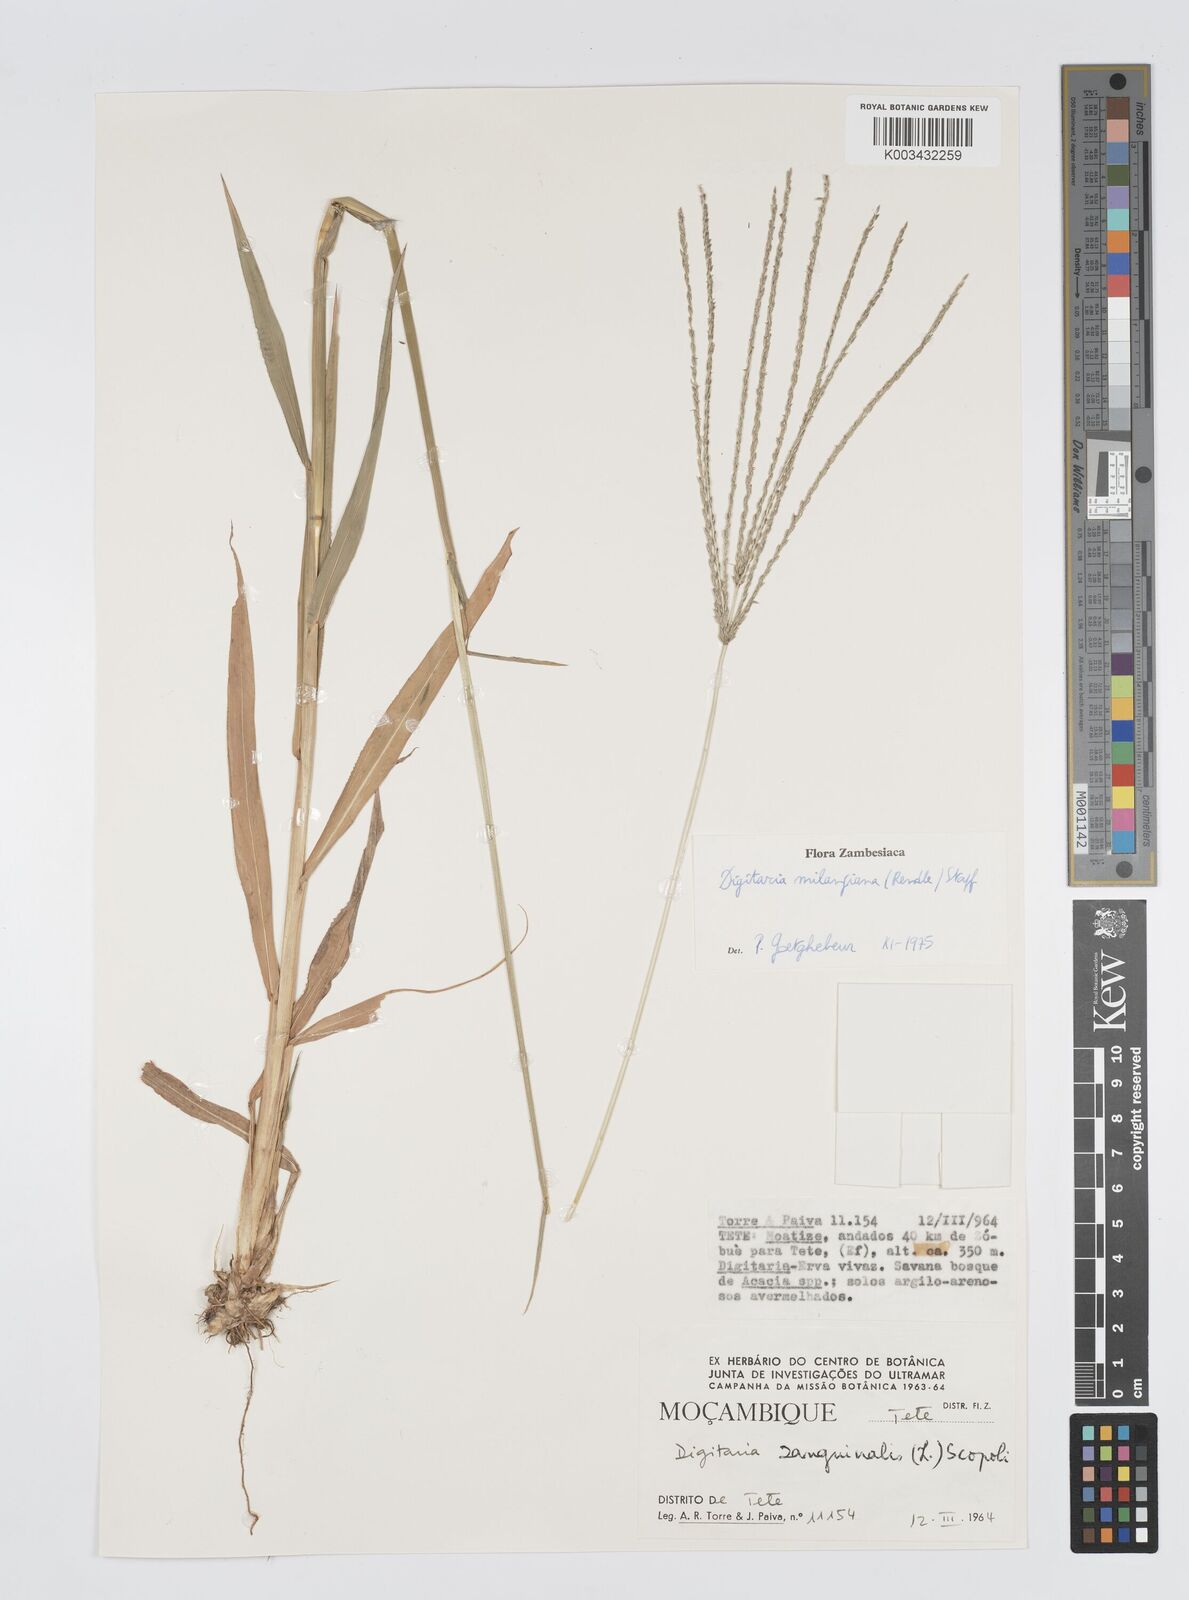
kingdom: Plantae
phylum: Tracheophyta
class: Liliopsida
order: Poales
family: Poaceae
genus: Digitaria
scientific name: Digitaria milanjiana
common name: Madagascar crabgrass
